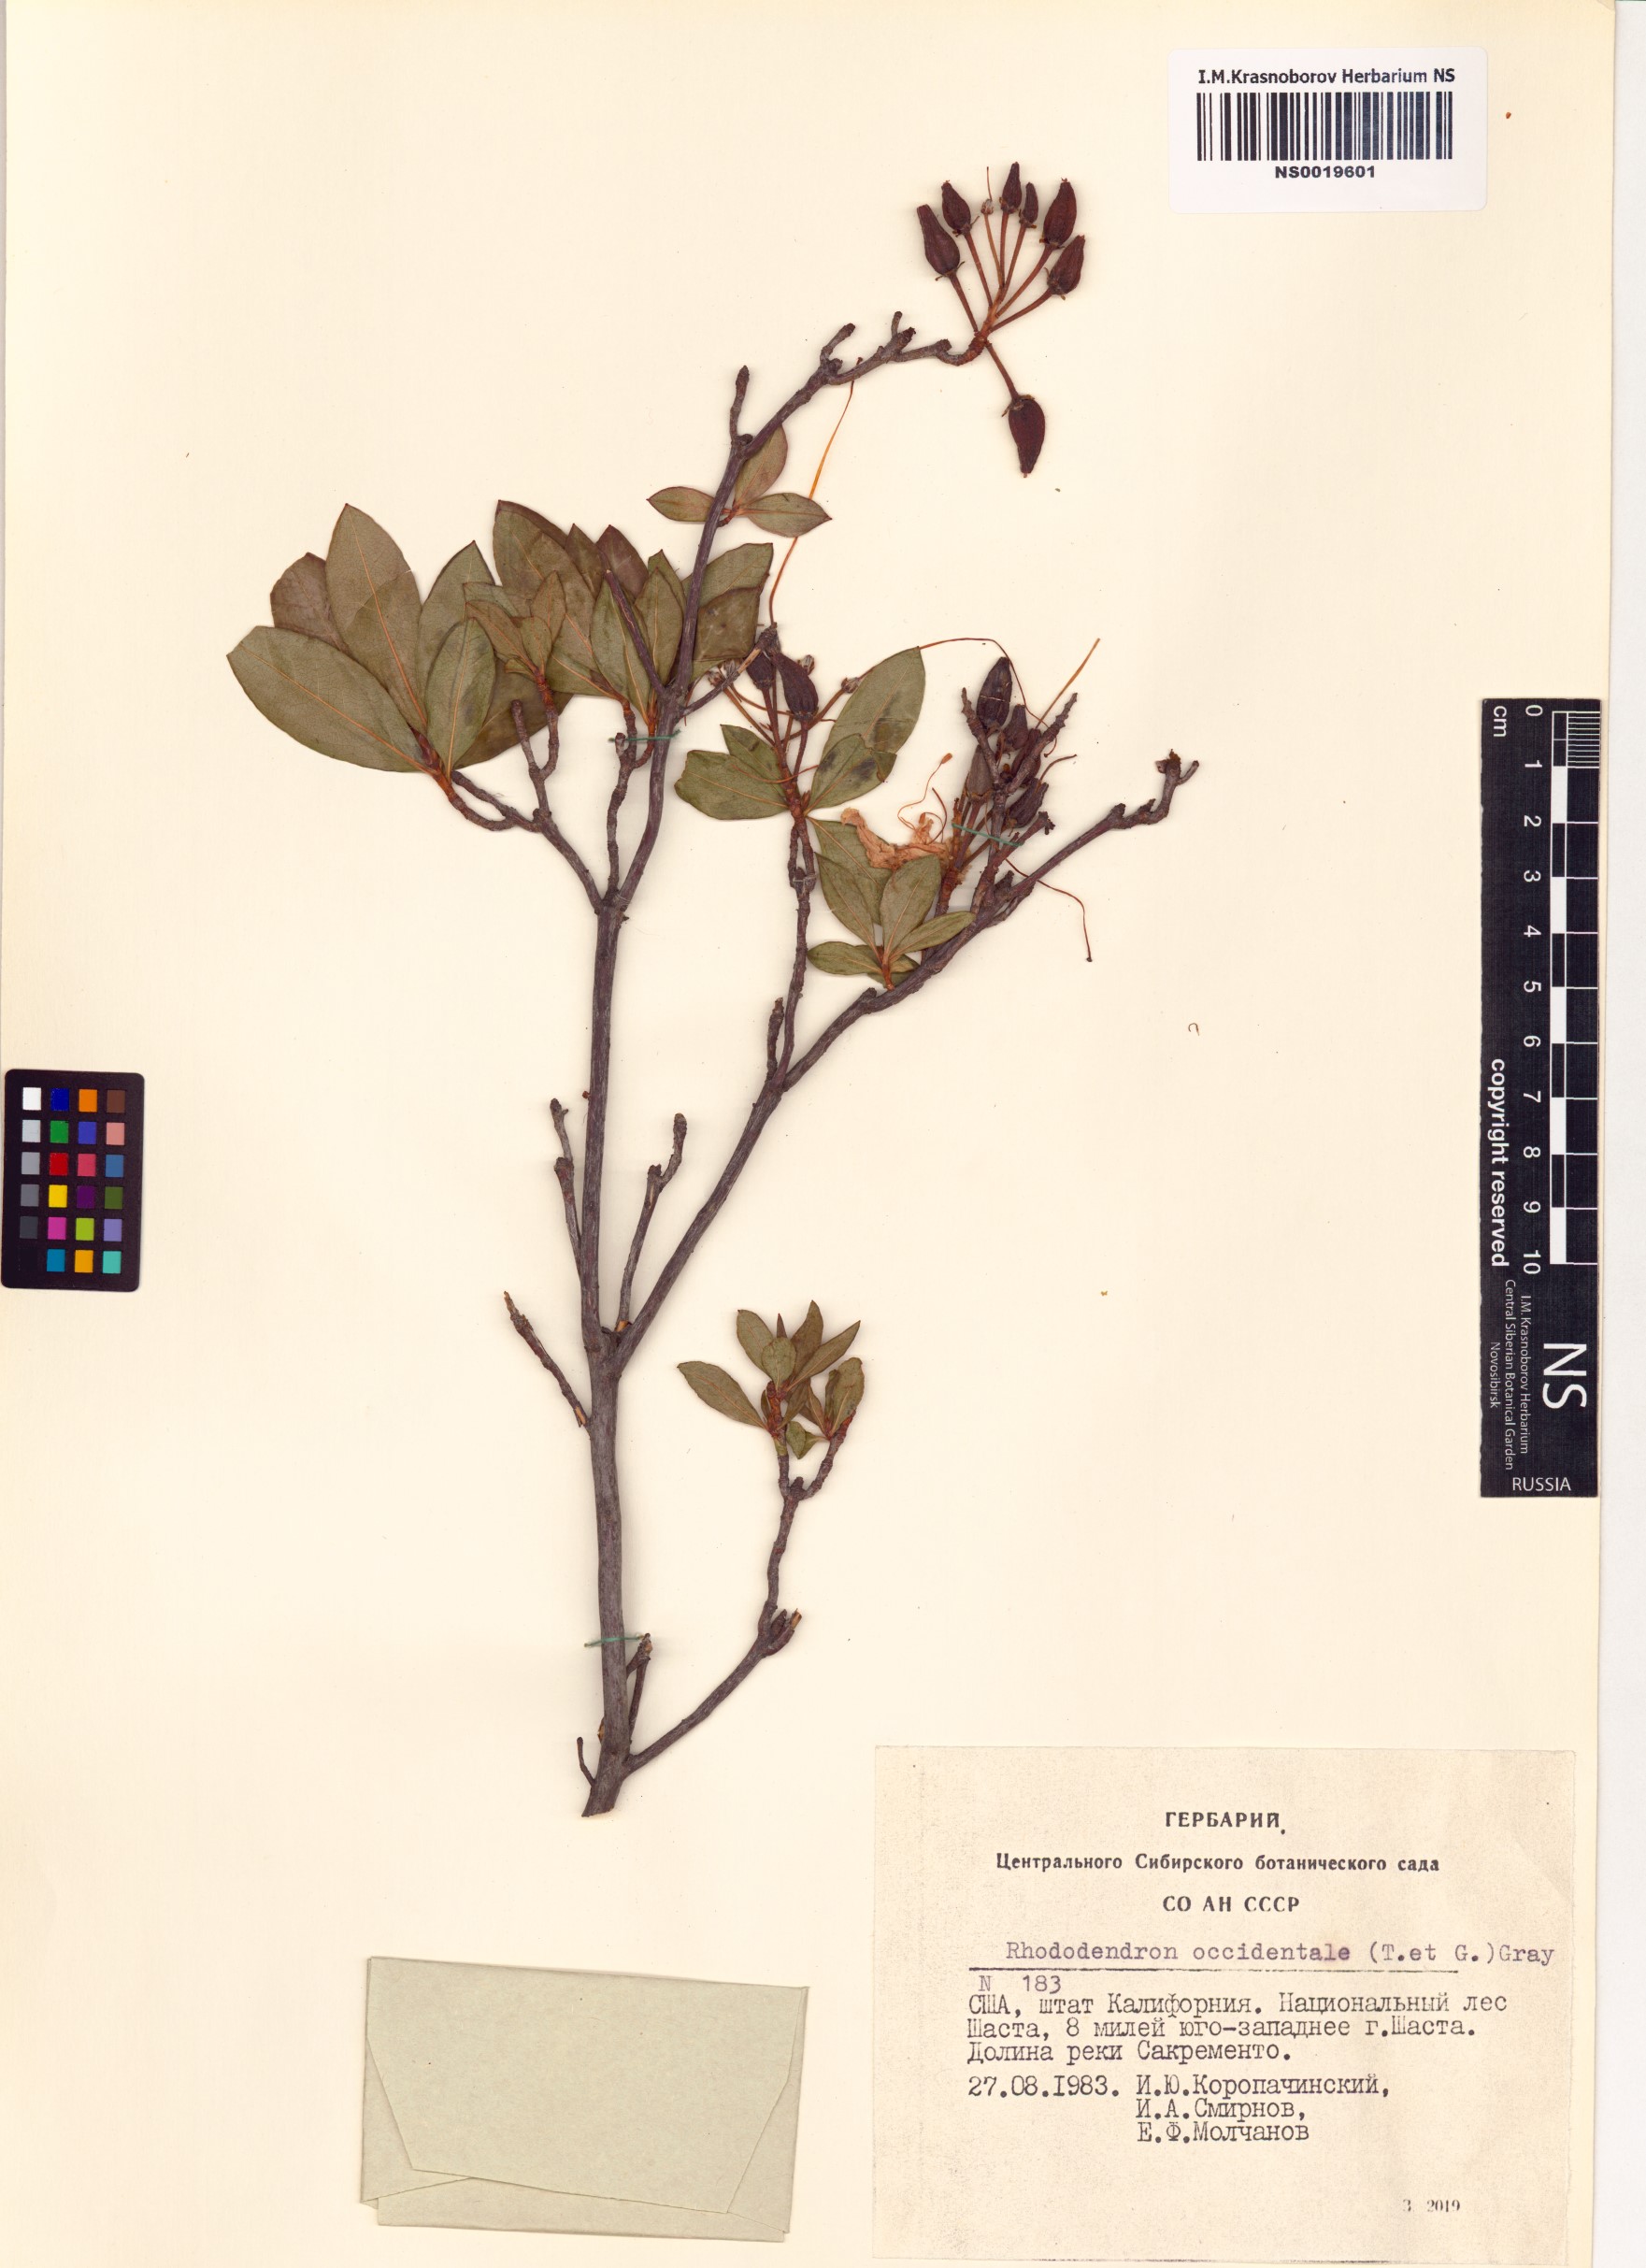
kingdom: Plantae
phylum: Tracheophyta
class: Magnoliopsida
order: Ericales
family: Ericaceae
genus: Rhododendron
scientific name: Rhododendron occidentale
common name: Western azalea
